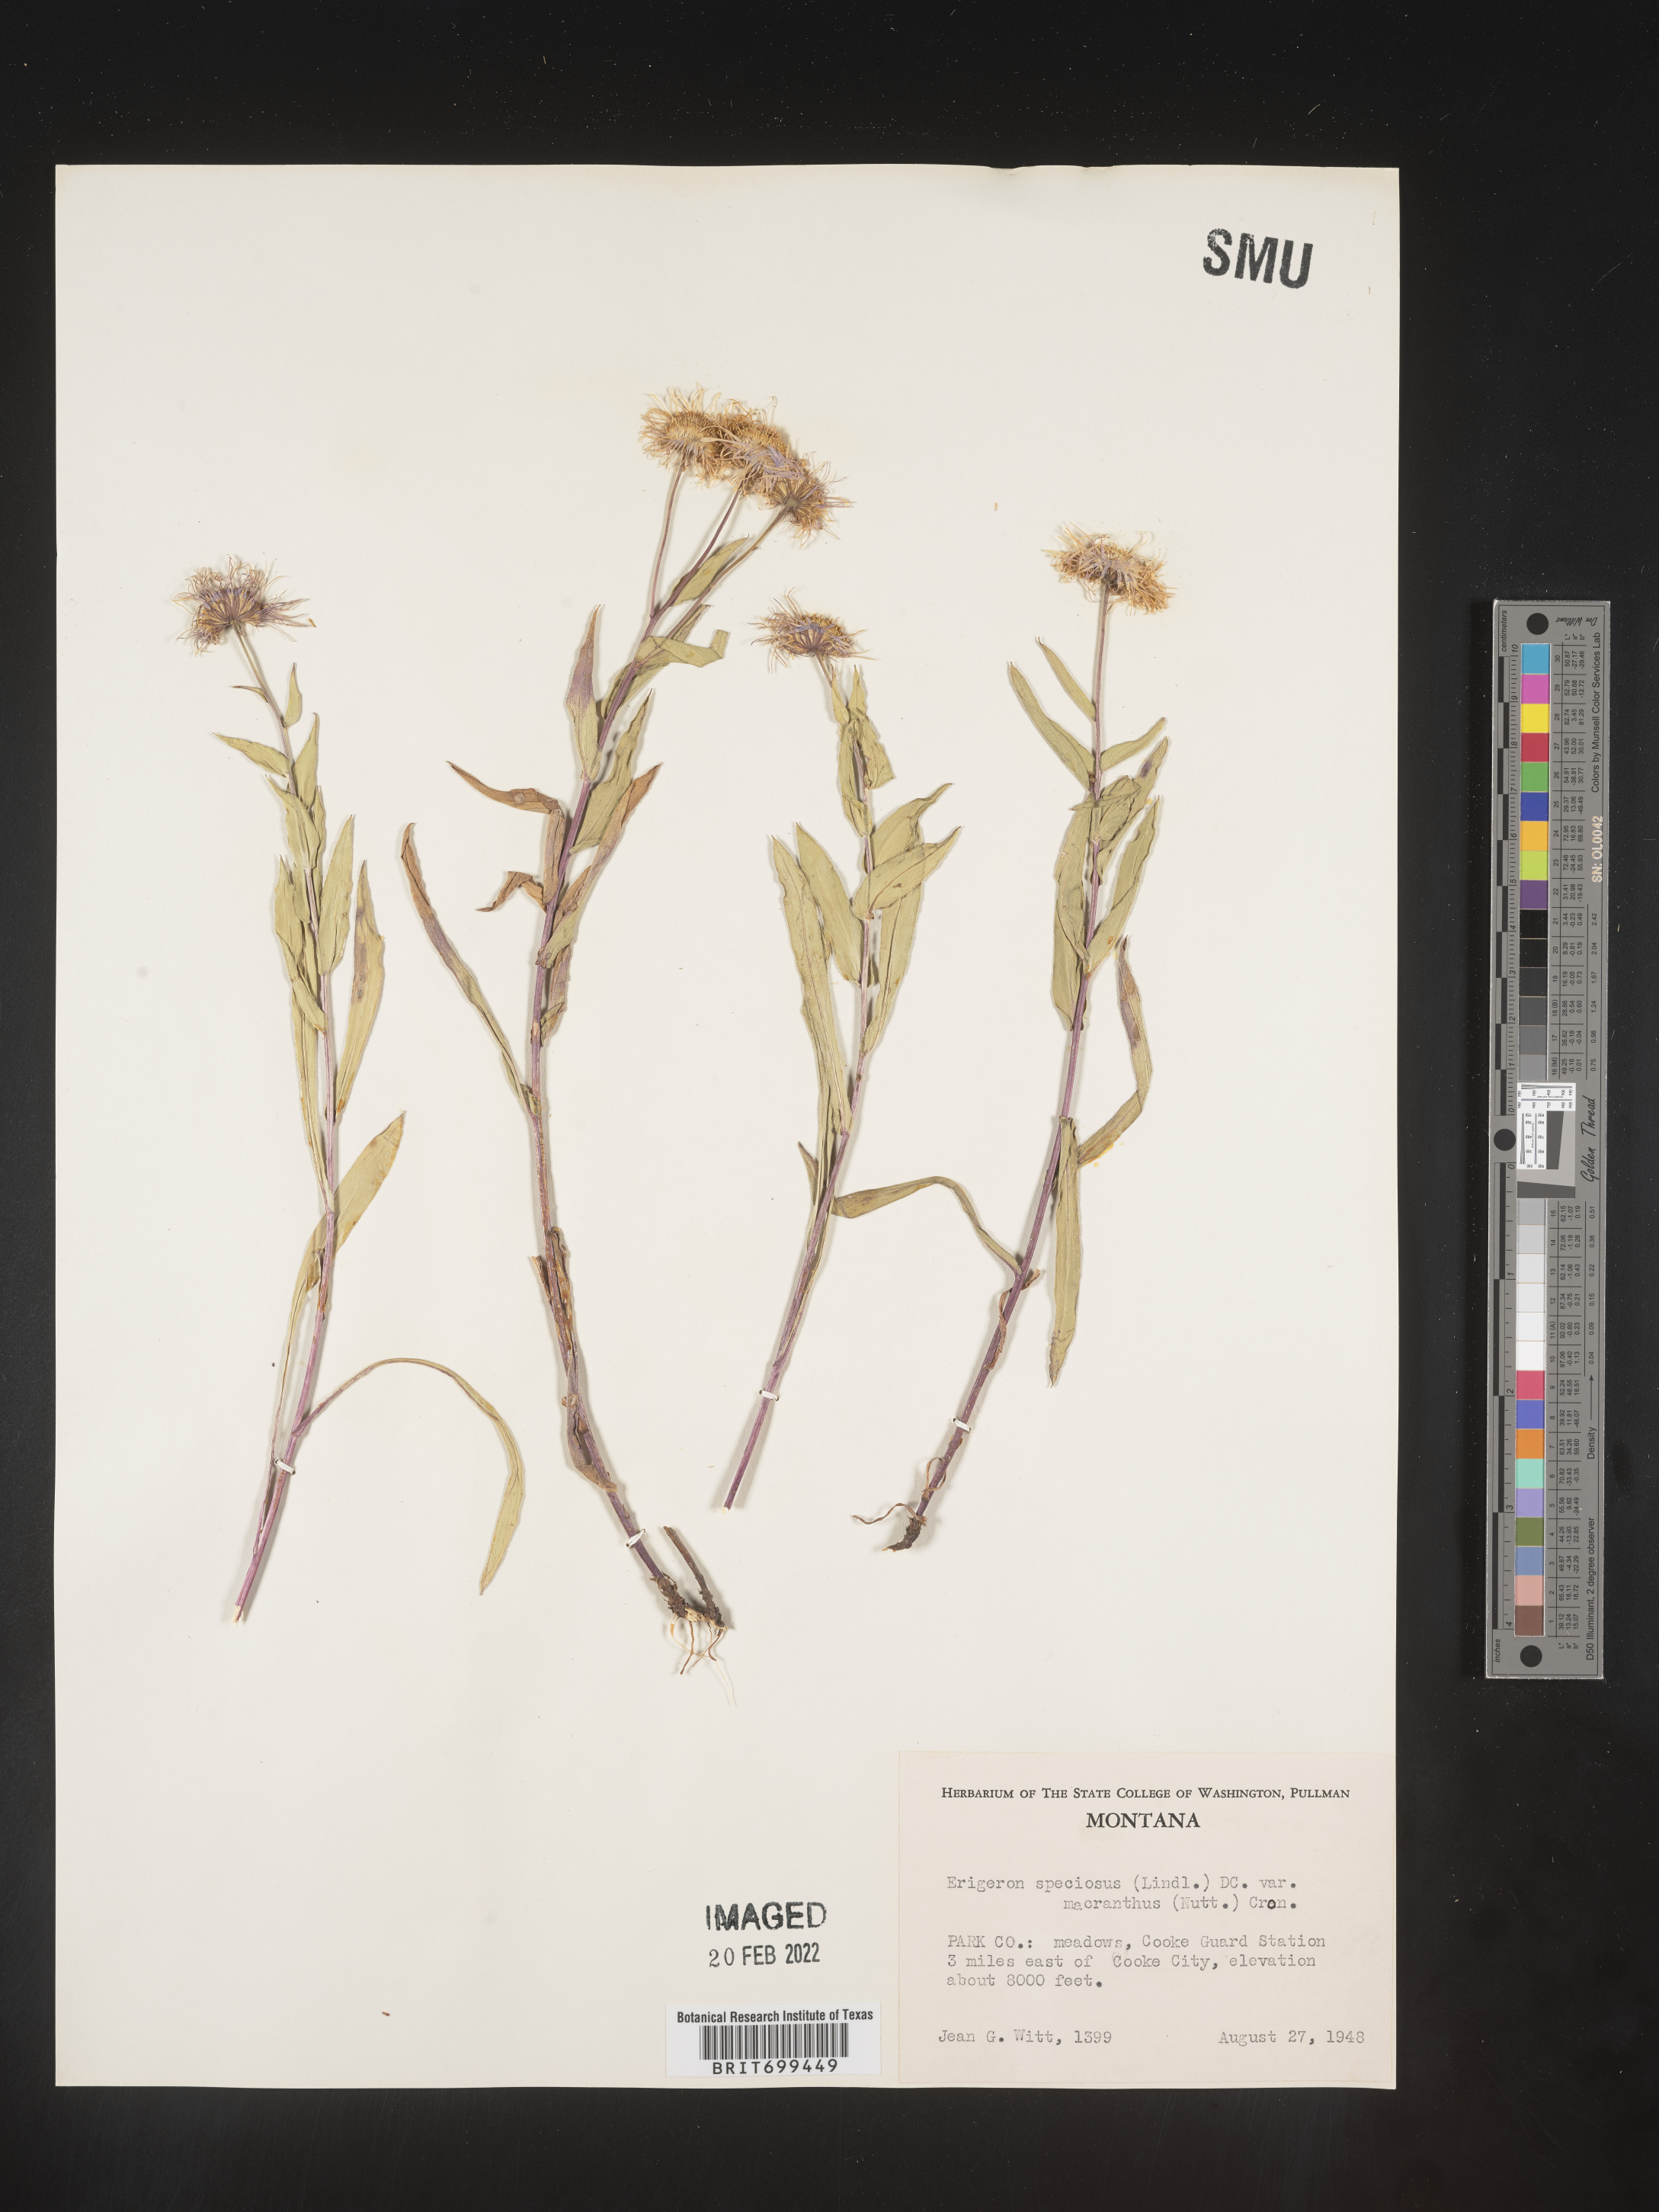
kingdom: Plantae
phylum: Tracheophyta
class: Magnoliopsida
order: Asterales
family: Asteraceae
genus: Erigeron
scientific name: Erigeron speciosus
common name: Aspen fleabane
